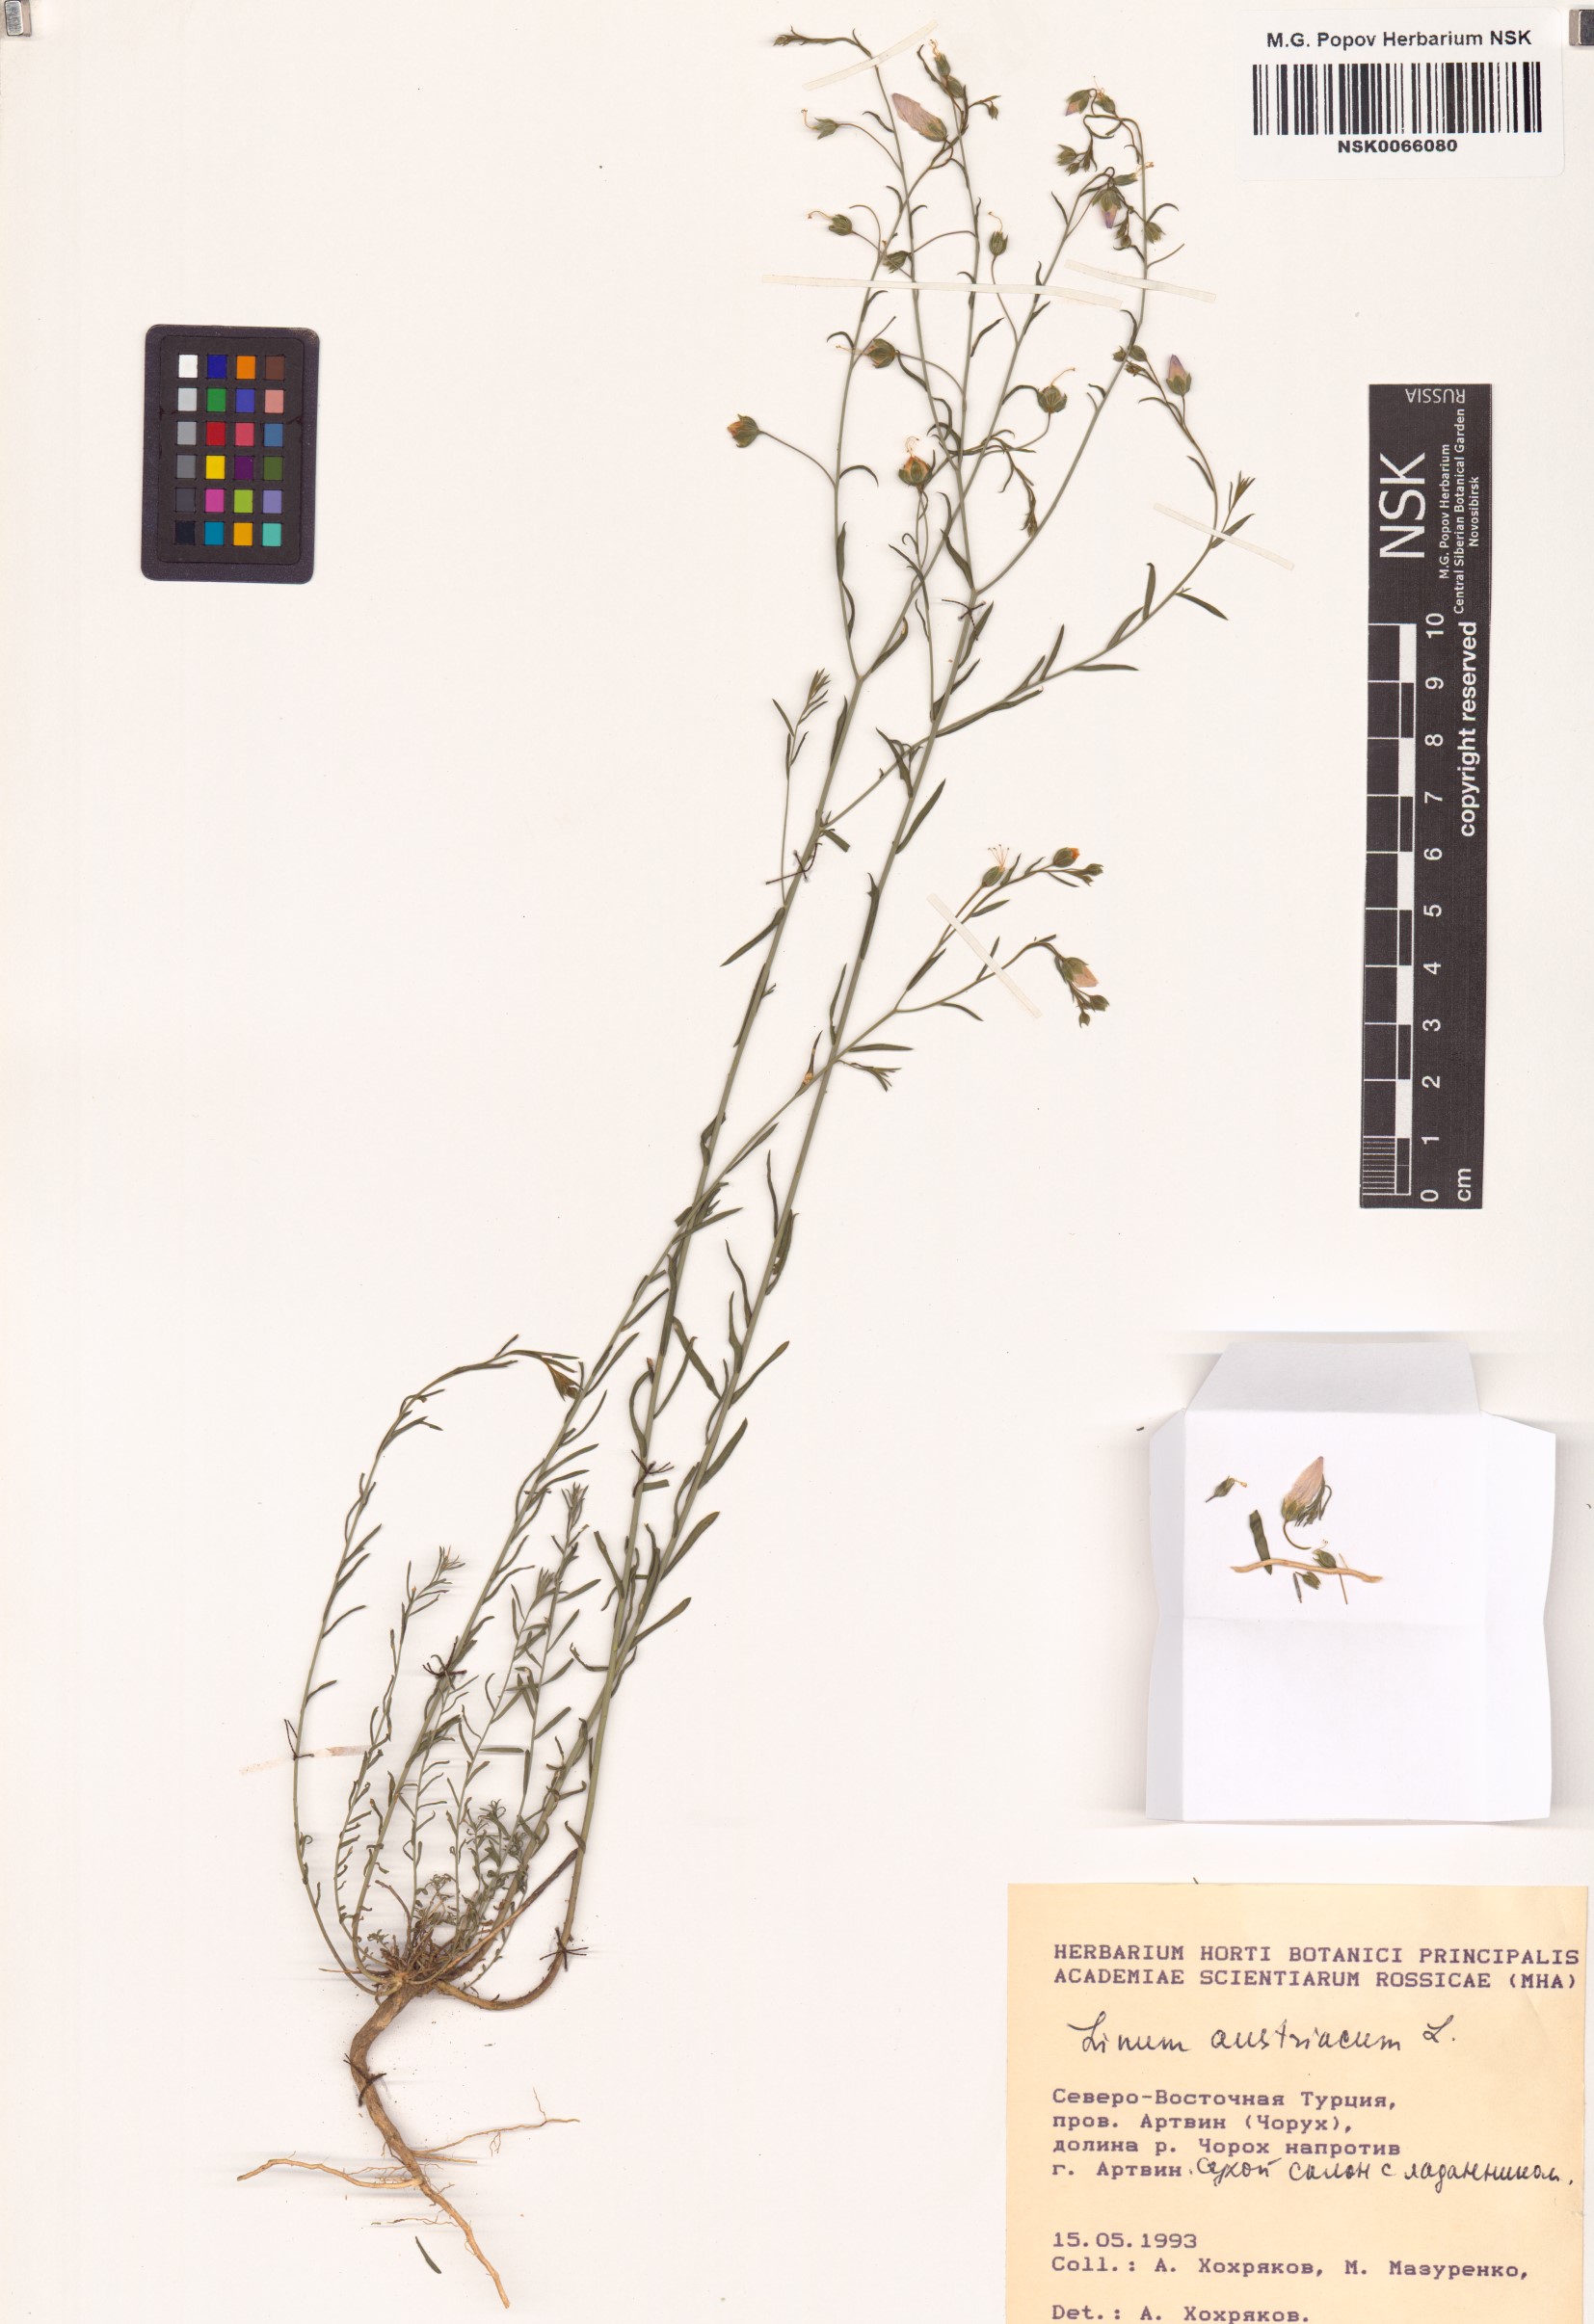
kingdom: Plantae
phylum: Tracheophyta
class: Magnoliopsida
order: Malpighiales
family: Linaceae
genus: Linum
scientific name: Linum austriacum
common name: Austrian flax
